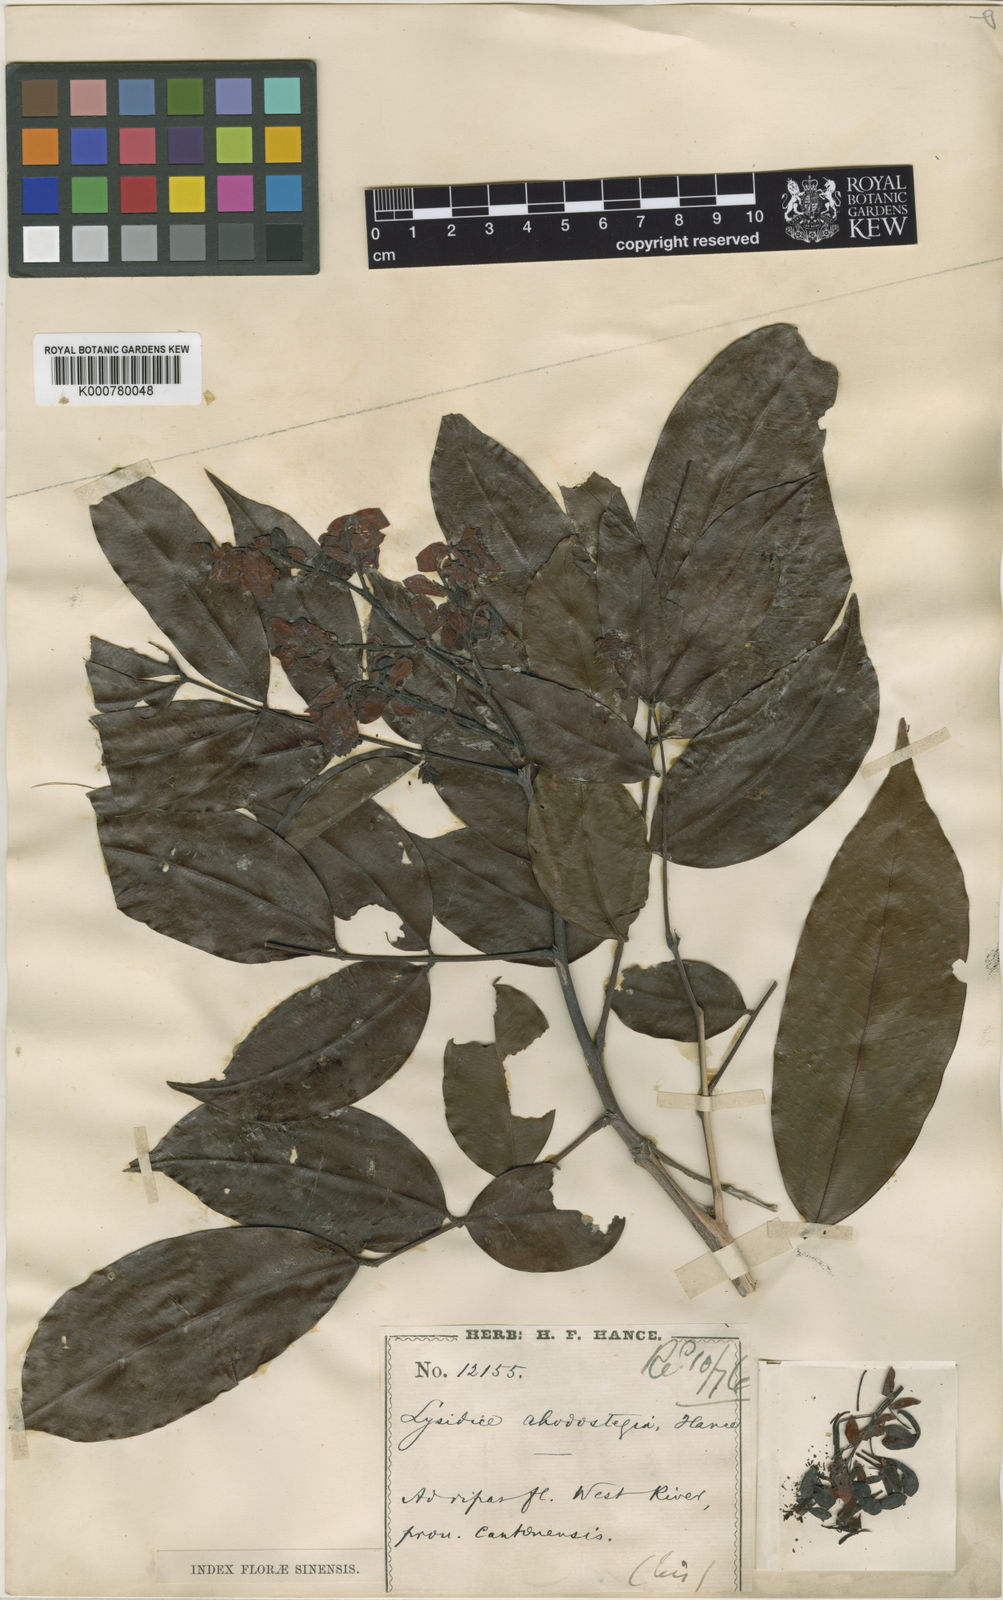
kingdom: Plantae
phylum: Tracheophyta
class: Magnoliopsida
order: Fabales
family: Fabaceae
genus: Lysidice
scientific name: Lysidice rhodostegia
